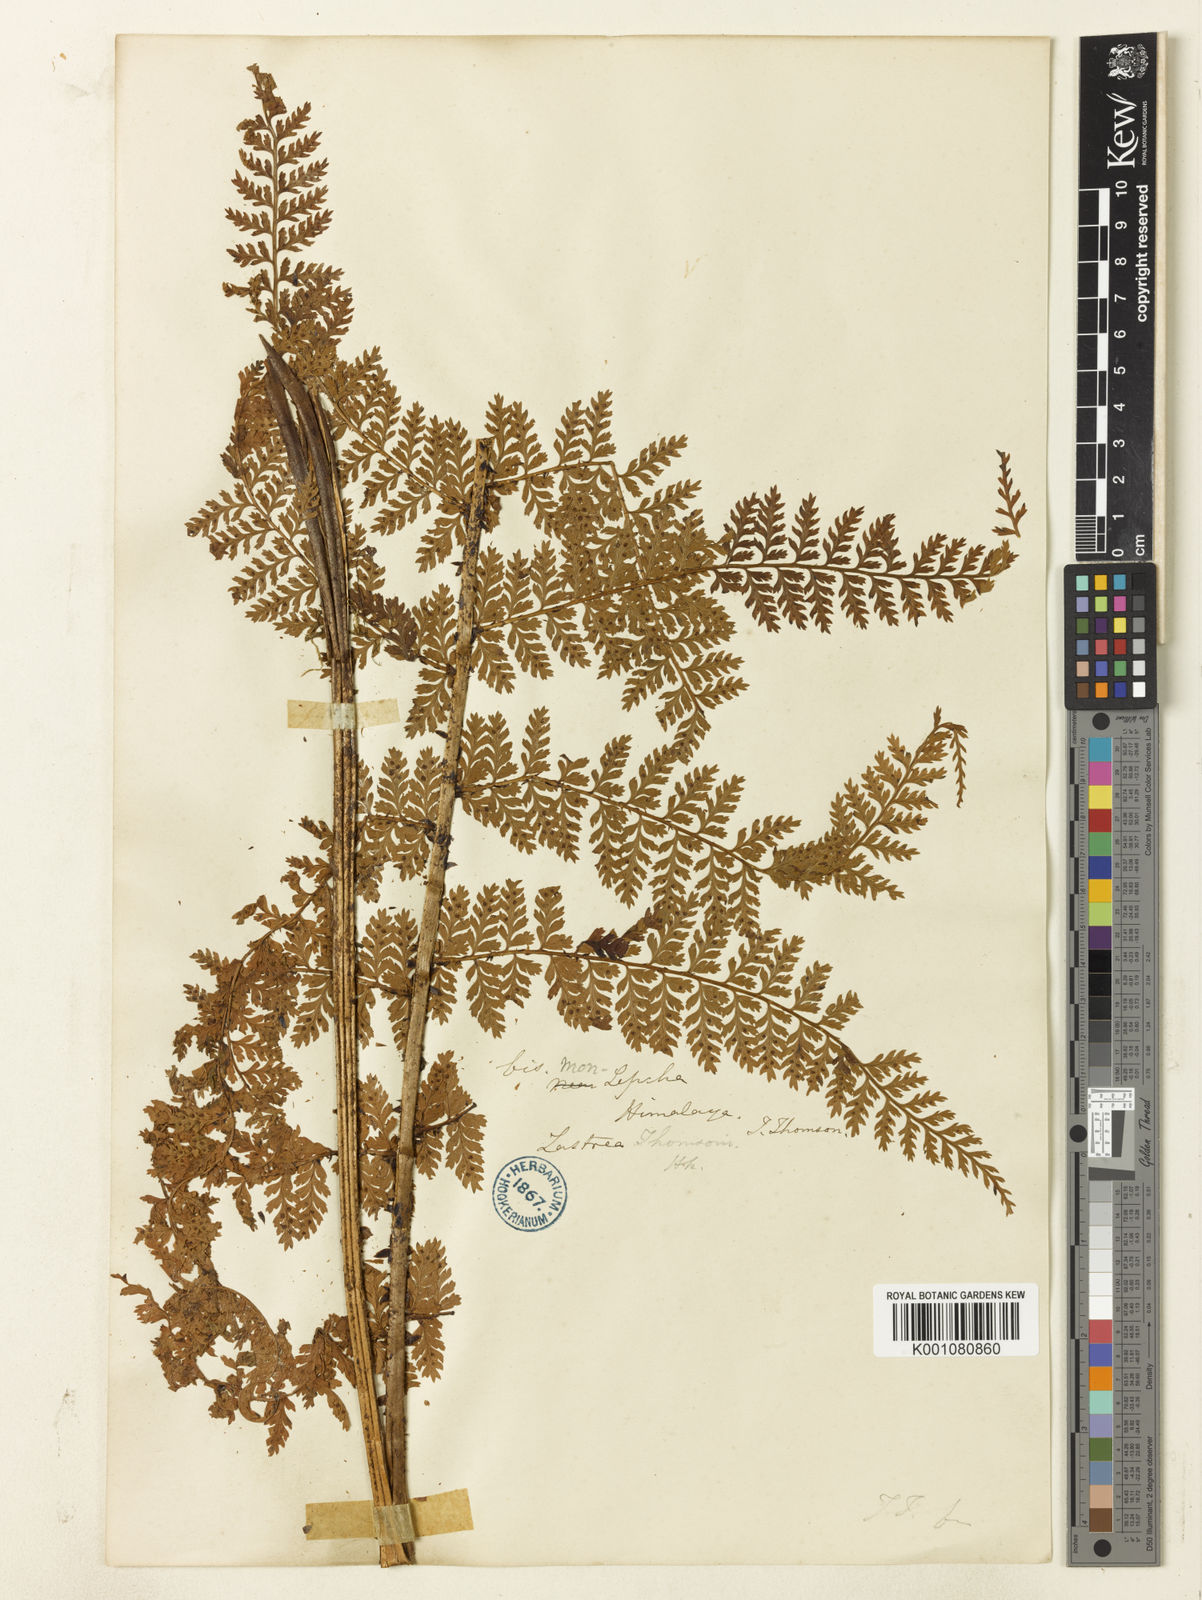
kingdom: Plantae
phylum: Tracheophyta
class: Polypodiopsida
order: Polypodiales
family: Dryopteridaceae
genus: Dryopteris
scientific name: Dryopteris sikkimensis
